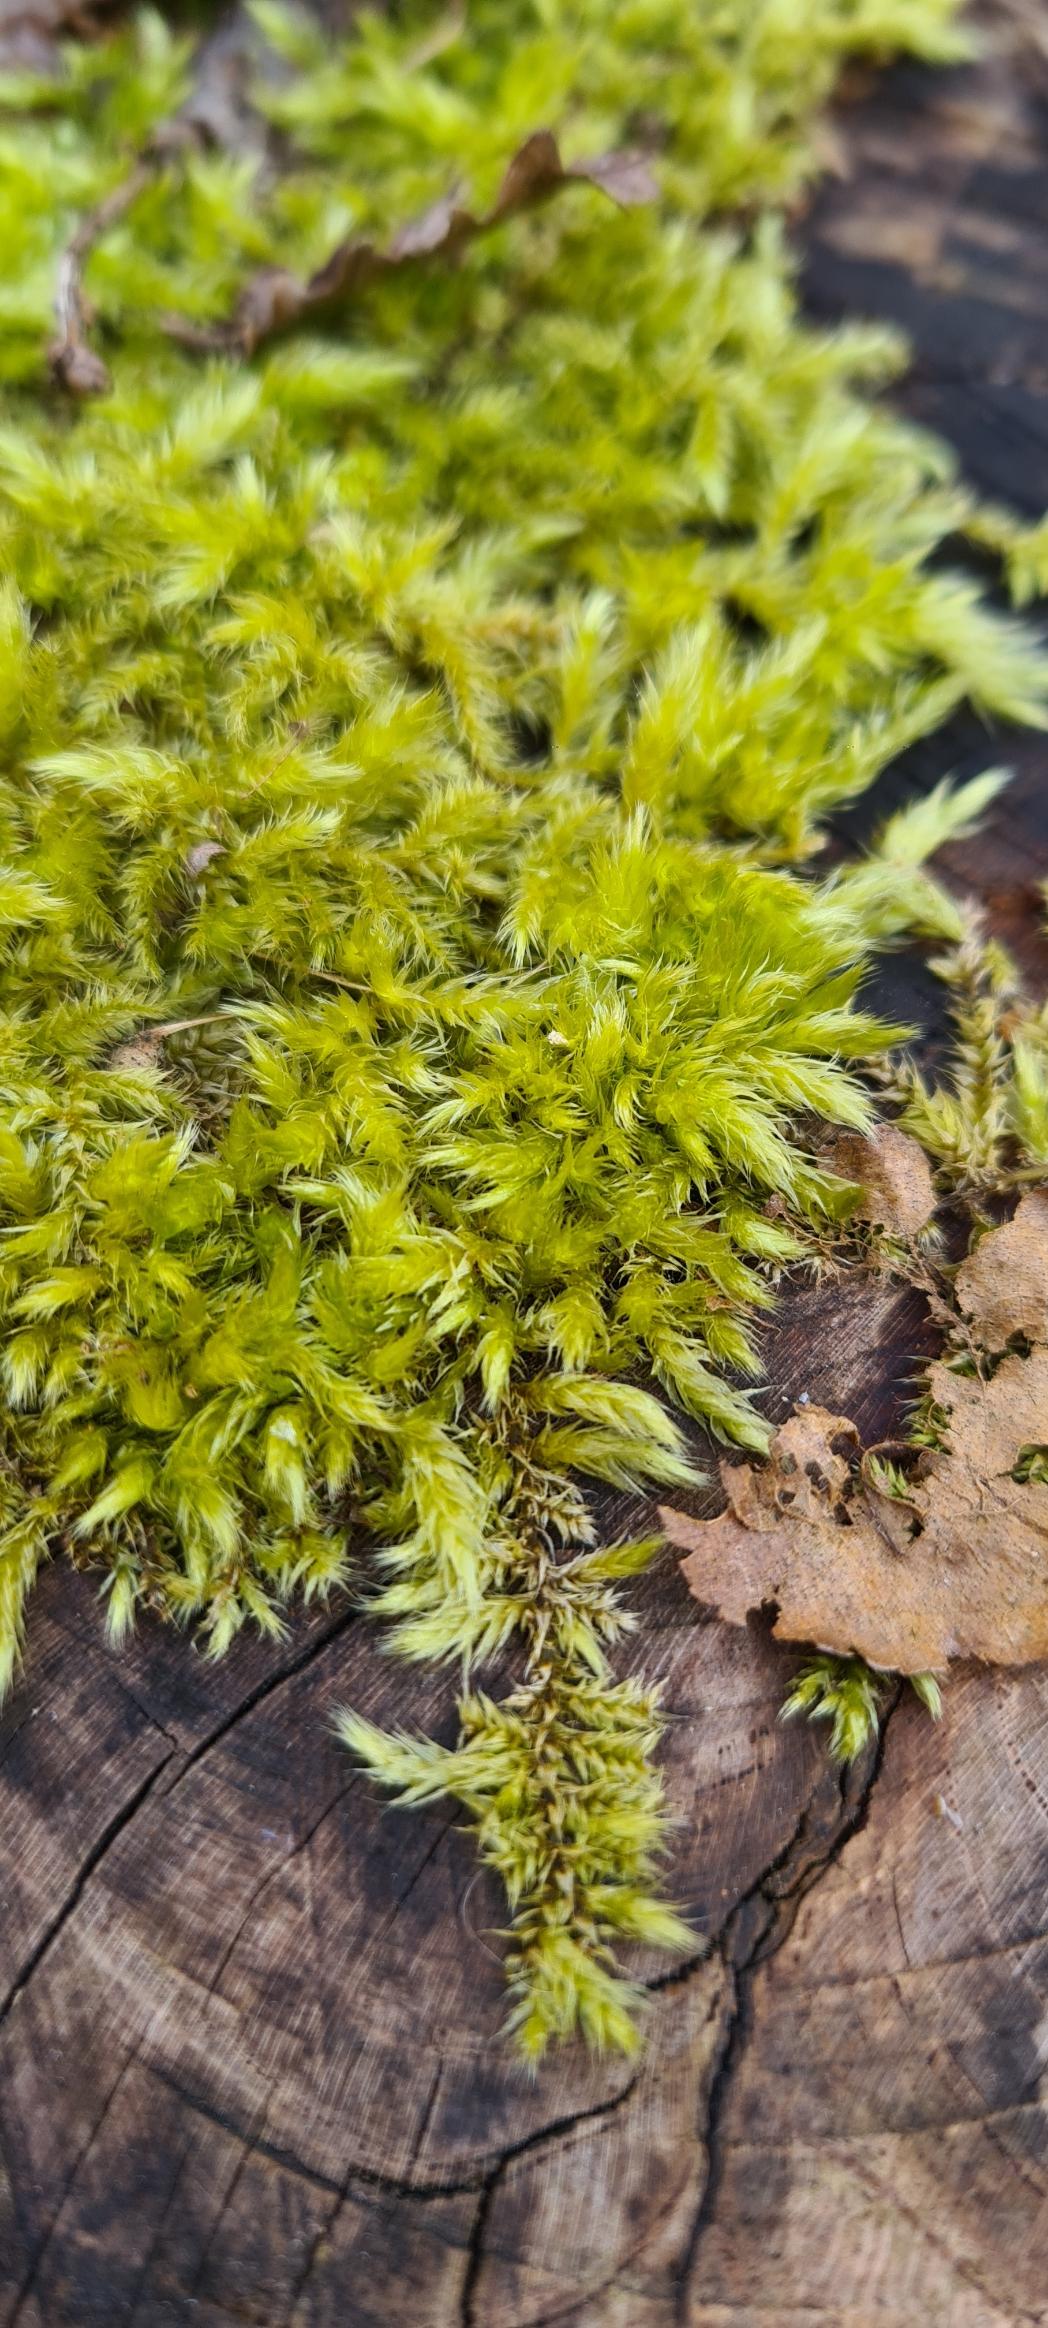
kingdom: Plantae
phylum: Bryophyta
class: Bryopsida
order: Hypnales
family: Brachytheciaceae
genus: Brachythecium
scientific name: Brachythecium
